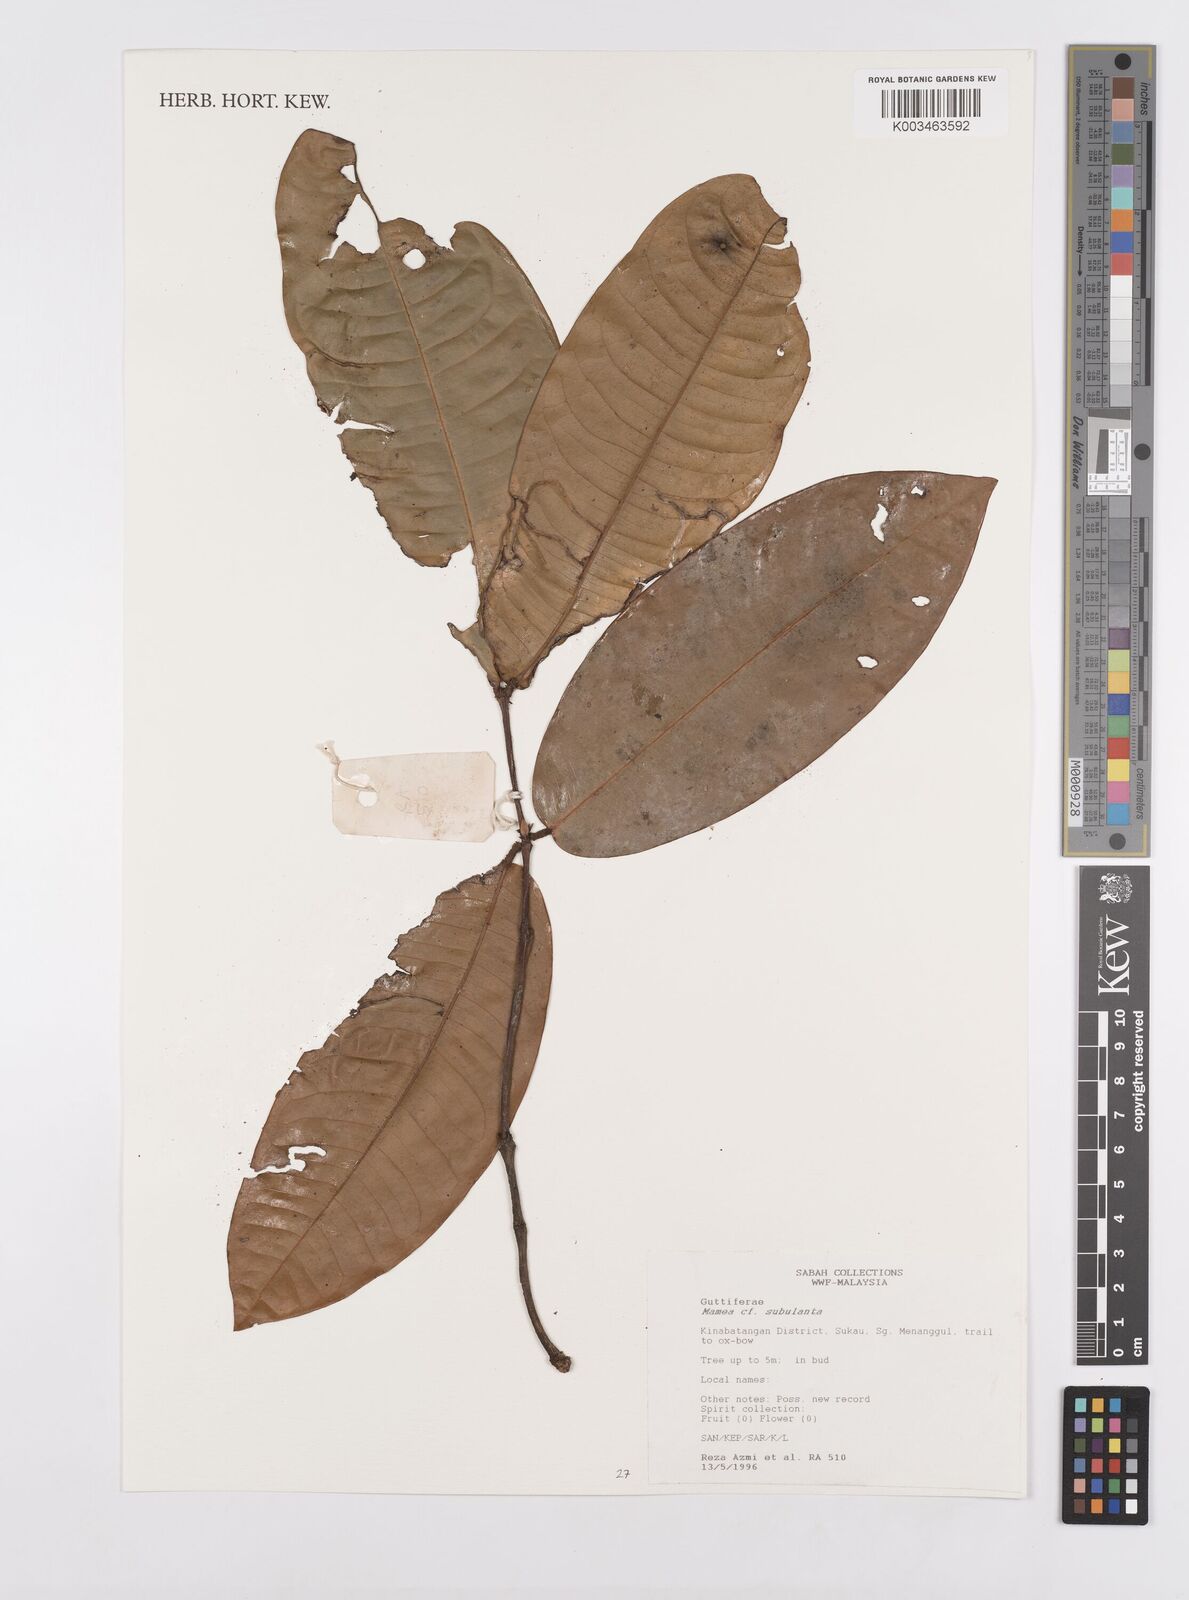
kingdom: Plantae
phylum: Tracheophyta
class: Magnoliopsida
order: Malpighiales
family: Calophyllaceae
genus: Mammea
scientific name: Mammea
